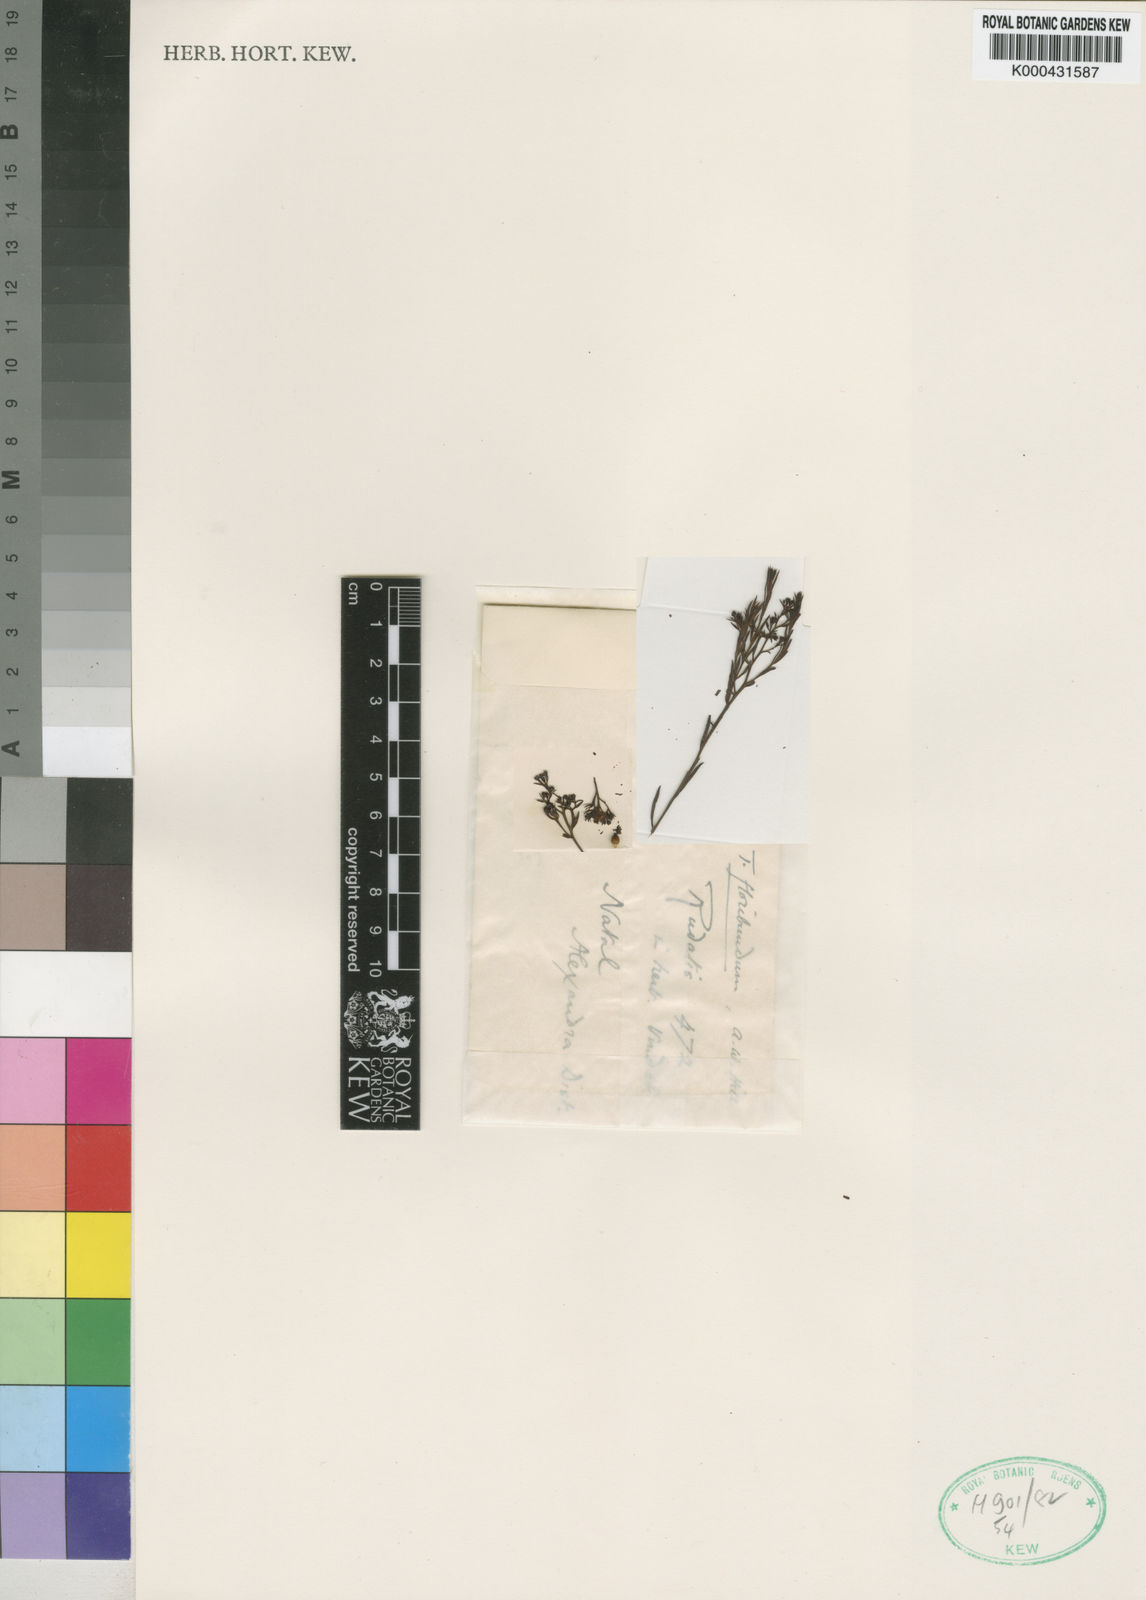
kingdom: Plantae
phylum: Tracheophyta
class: Magnoliopsida
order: Santalales
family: Thesiaceae
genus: Thesium
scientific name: Thesium pallidum
